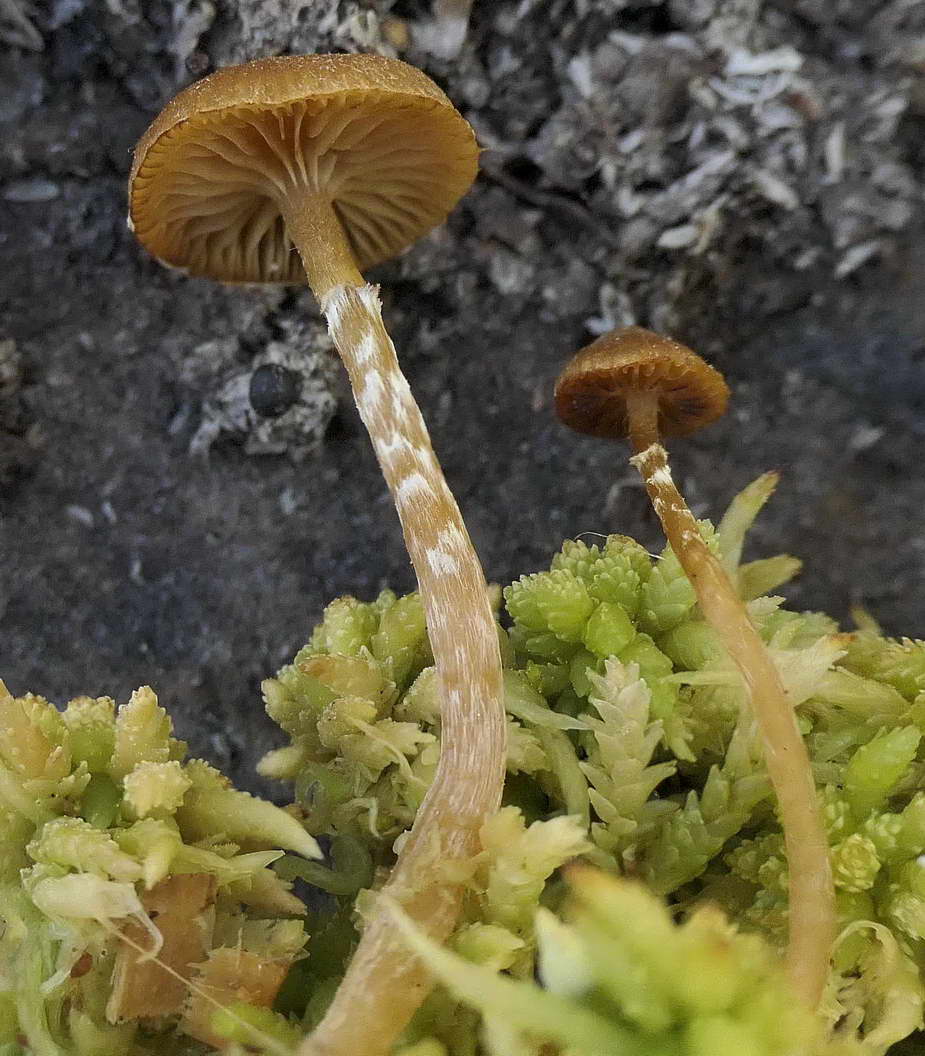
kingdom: Fungi
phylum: Basidiomycota
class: Agaricomycetes
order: Agaricales
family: Hymenogastraceae
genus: Galerina
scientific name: Galerina paludosa
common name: mose-hjelmhat
